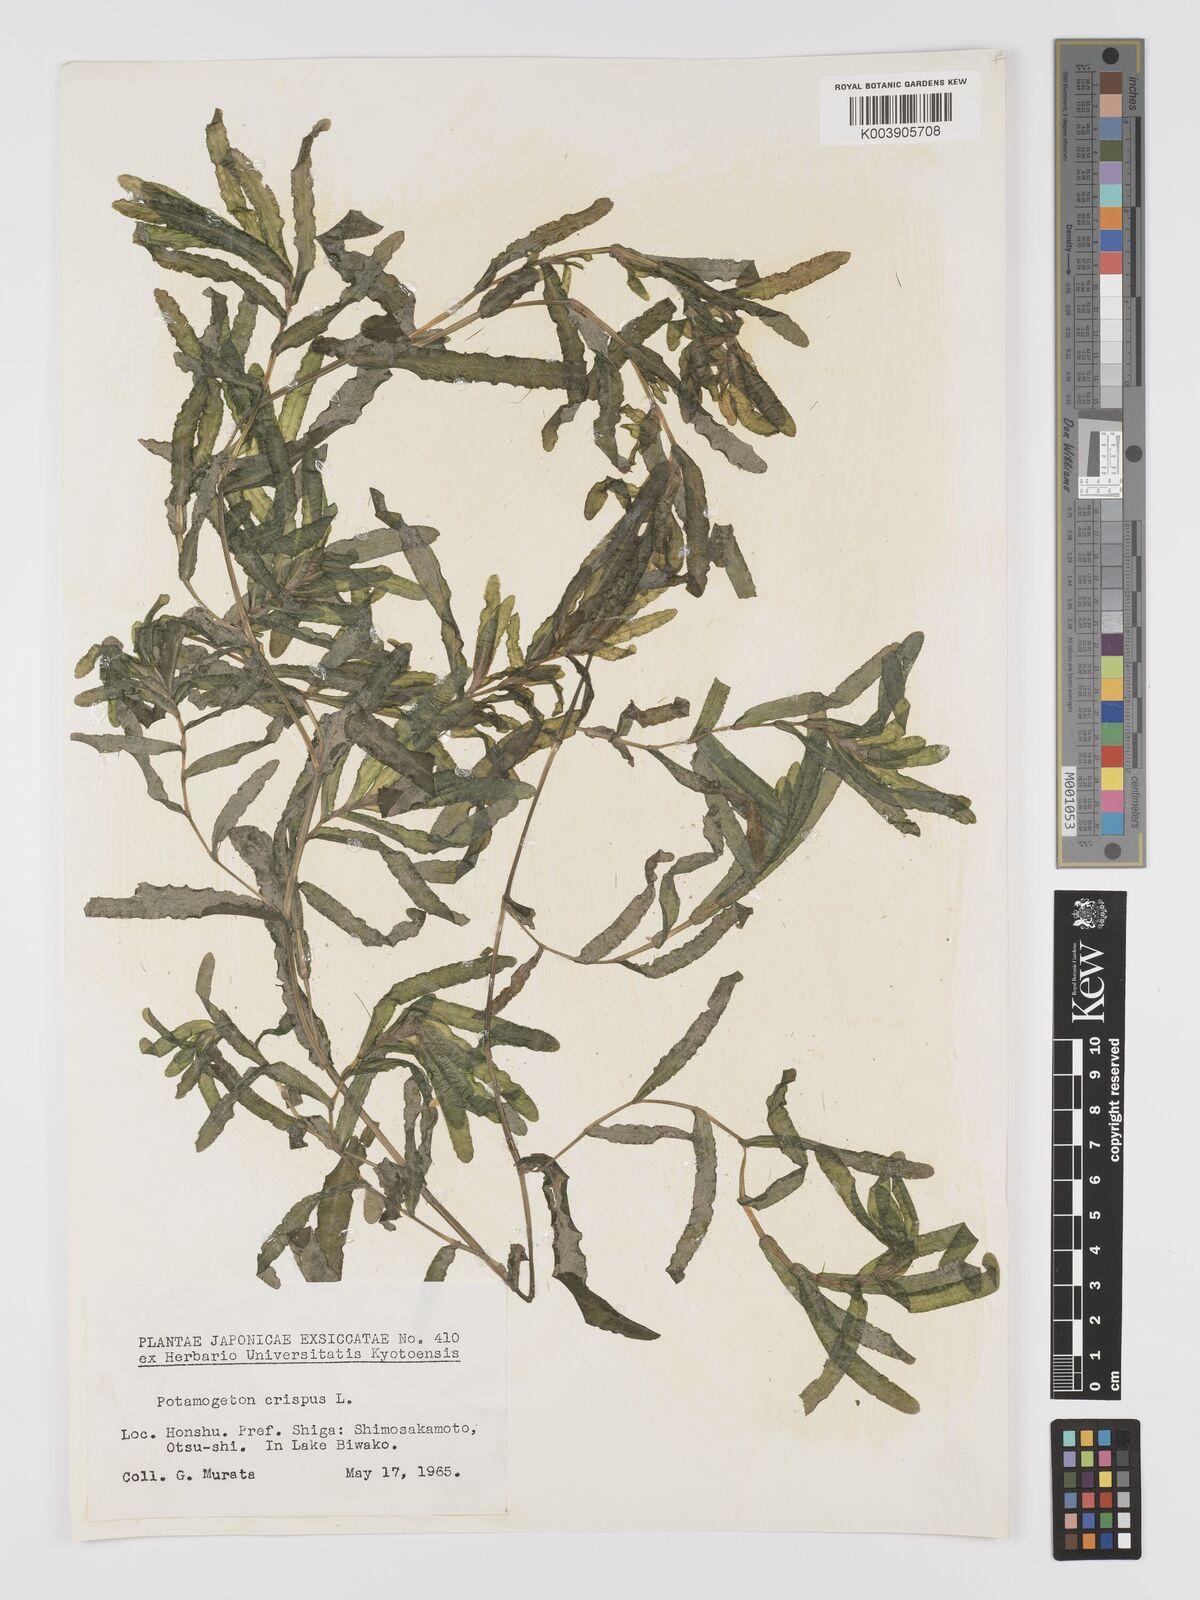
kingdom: Plantae
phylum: Tracheophyta
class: Liliopsida
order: Alismatales
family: Potamogetonaceae
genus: Potamogeton
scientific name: Potamogeton crispus
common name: Curled pondweed
